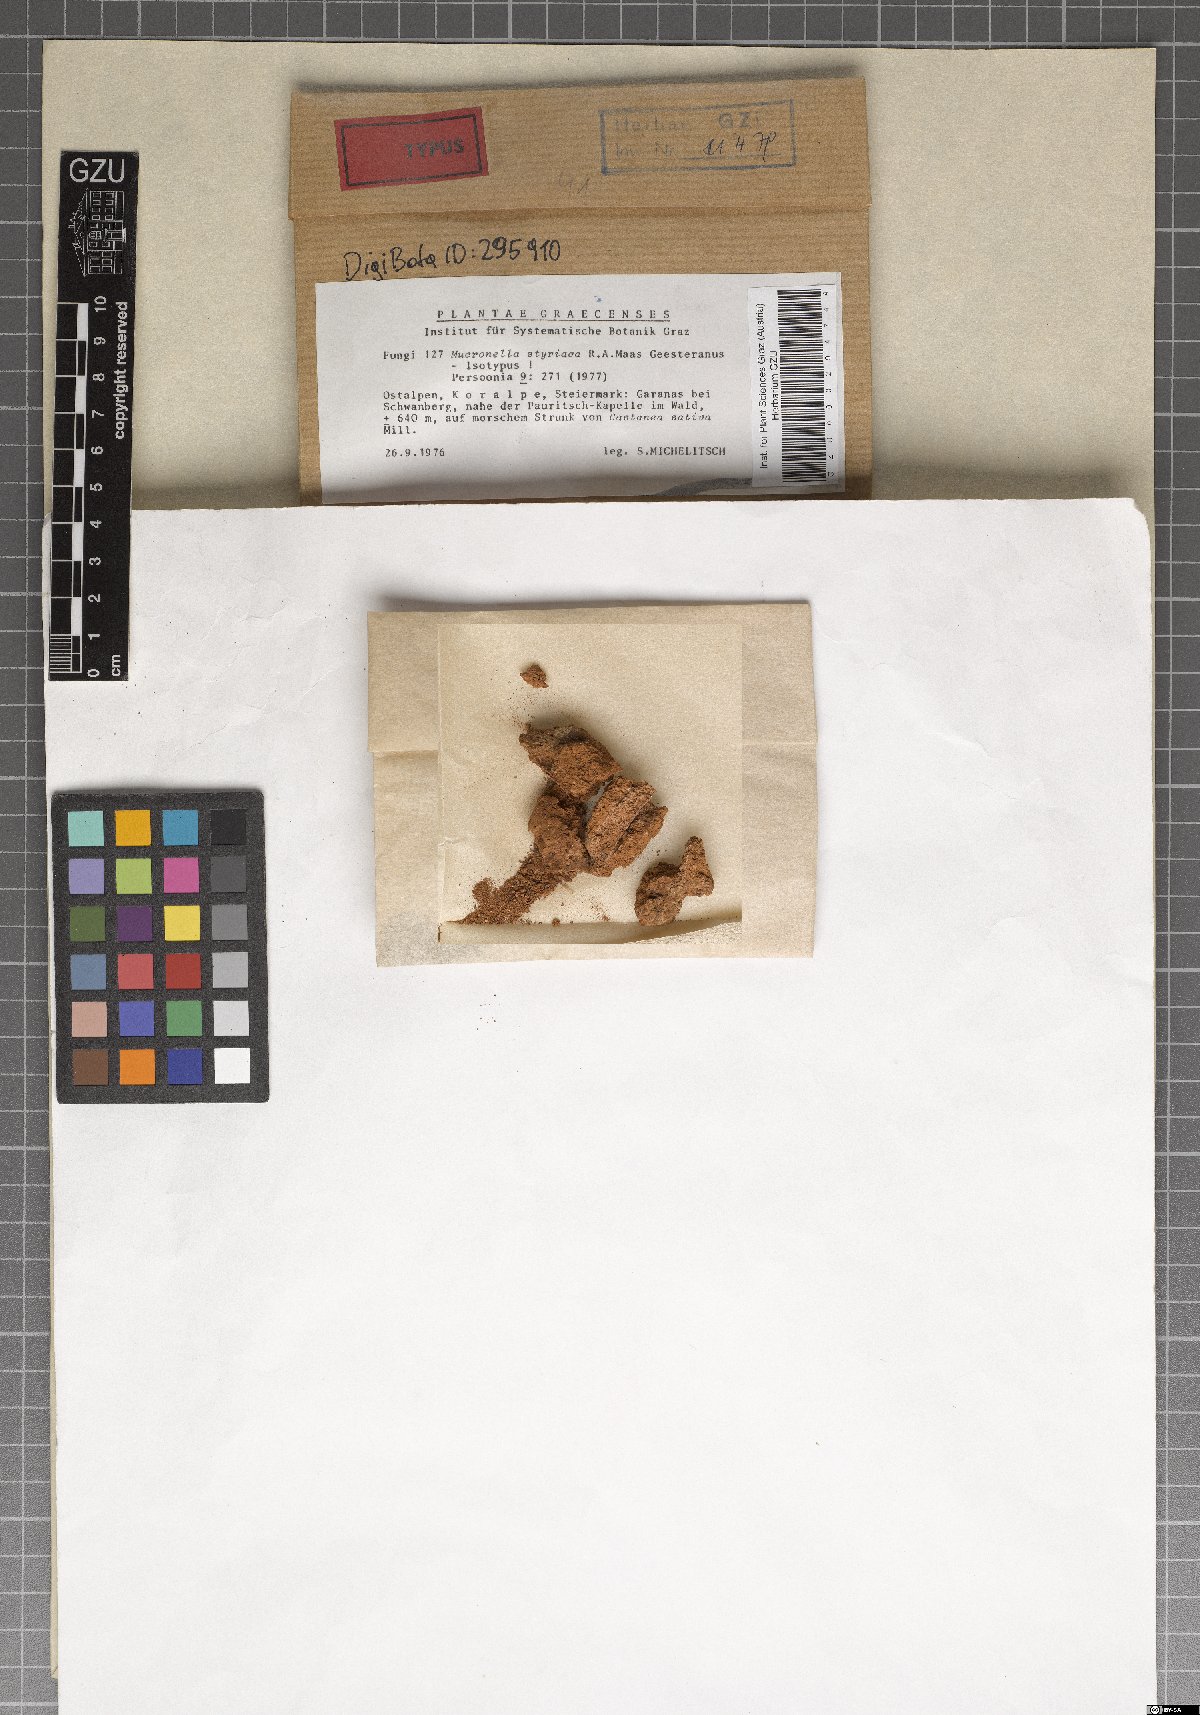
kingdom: Fungi
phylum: Basidiomycota
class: Agaricomycetes
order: Agaricales
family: Clavariaceae
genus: Mucronella
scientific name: Mucronella styriaca
